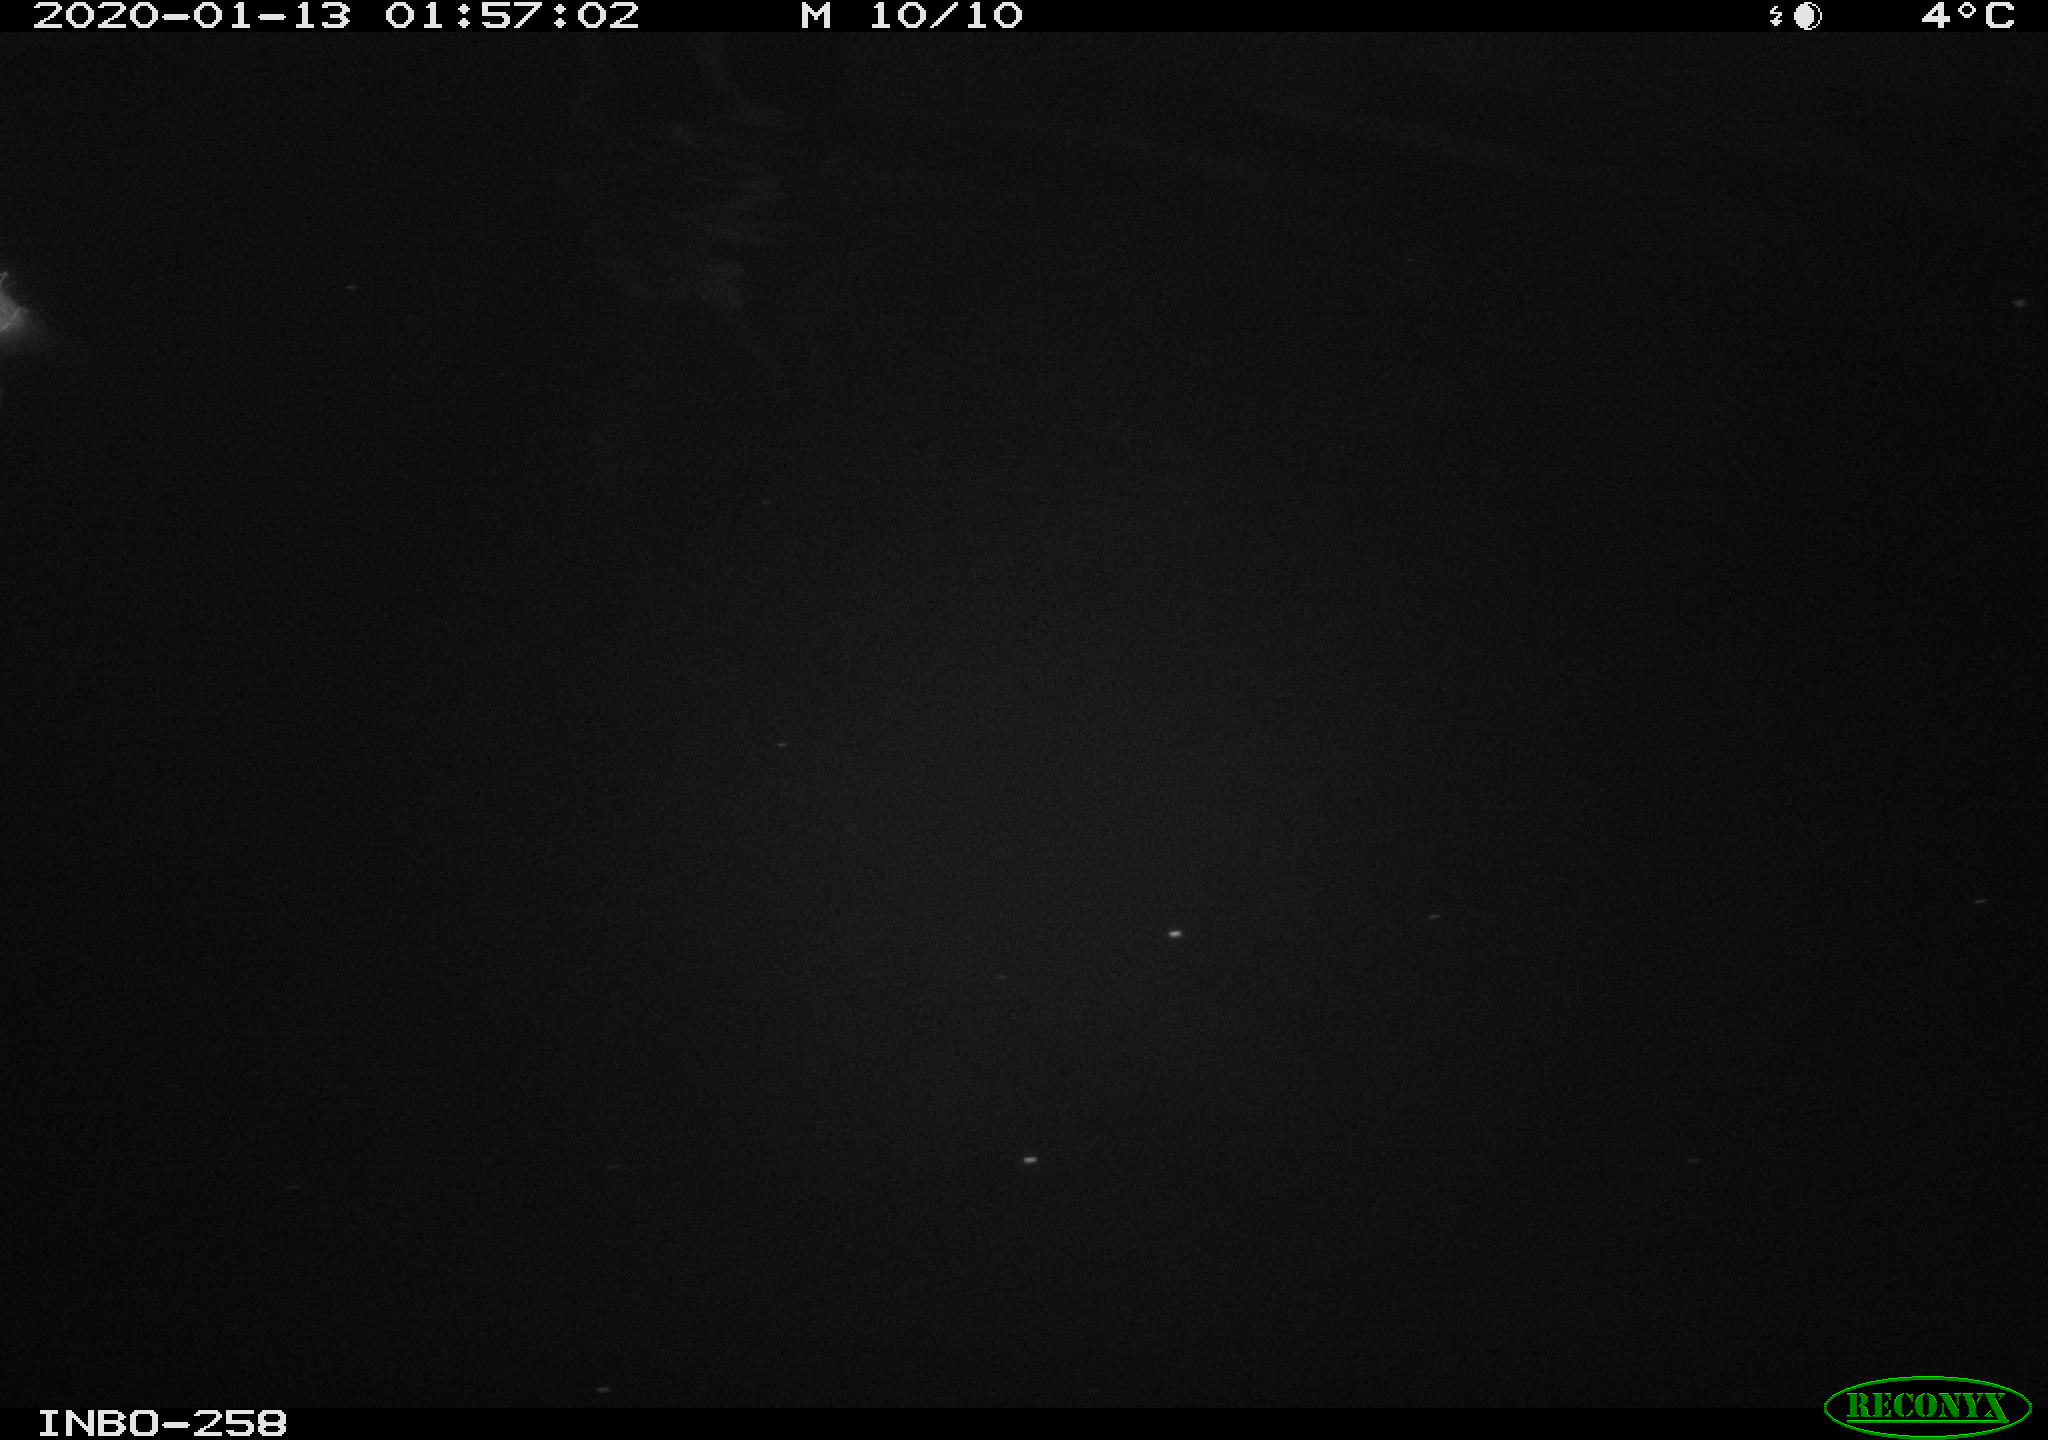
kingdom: Animalia
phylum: Chordata
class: Aves
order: Anseriformes
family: Anatidae
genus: Anas
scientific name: Anas platyrhynchos
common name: Mallard
